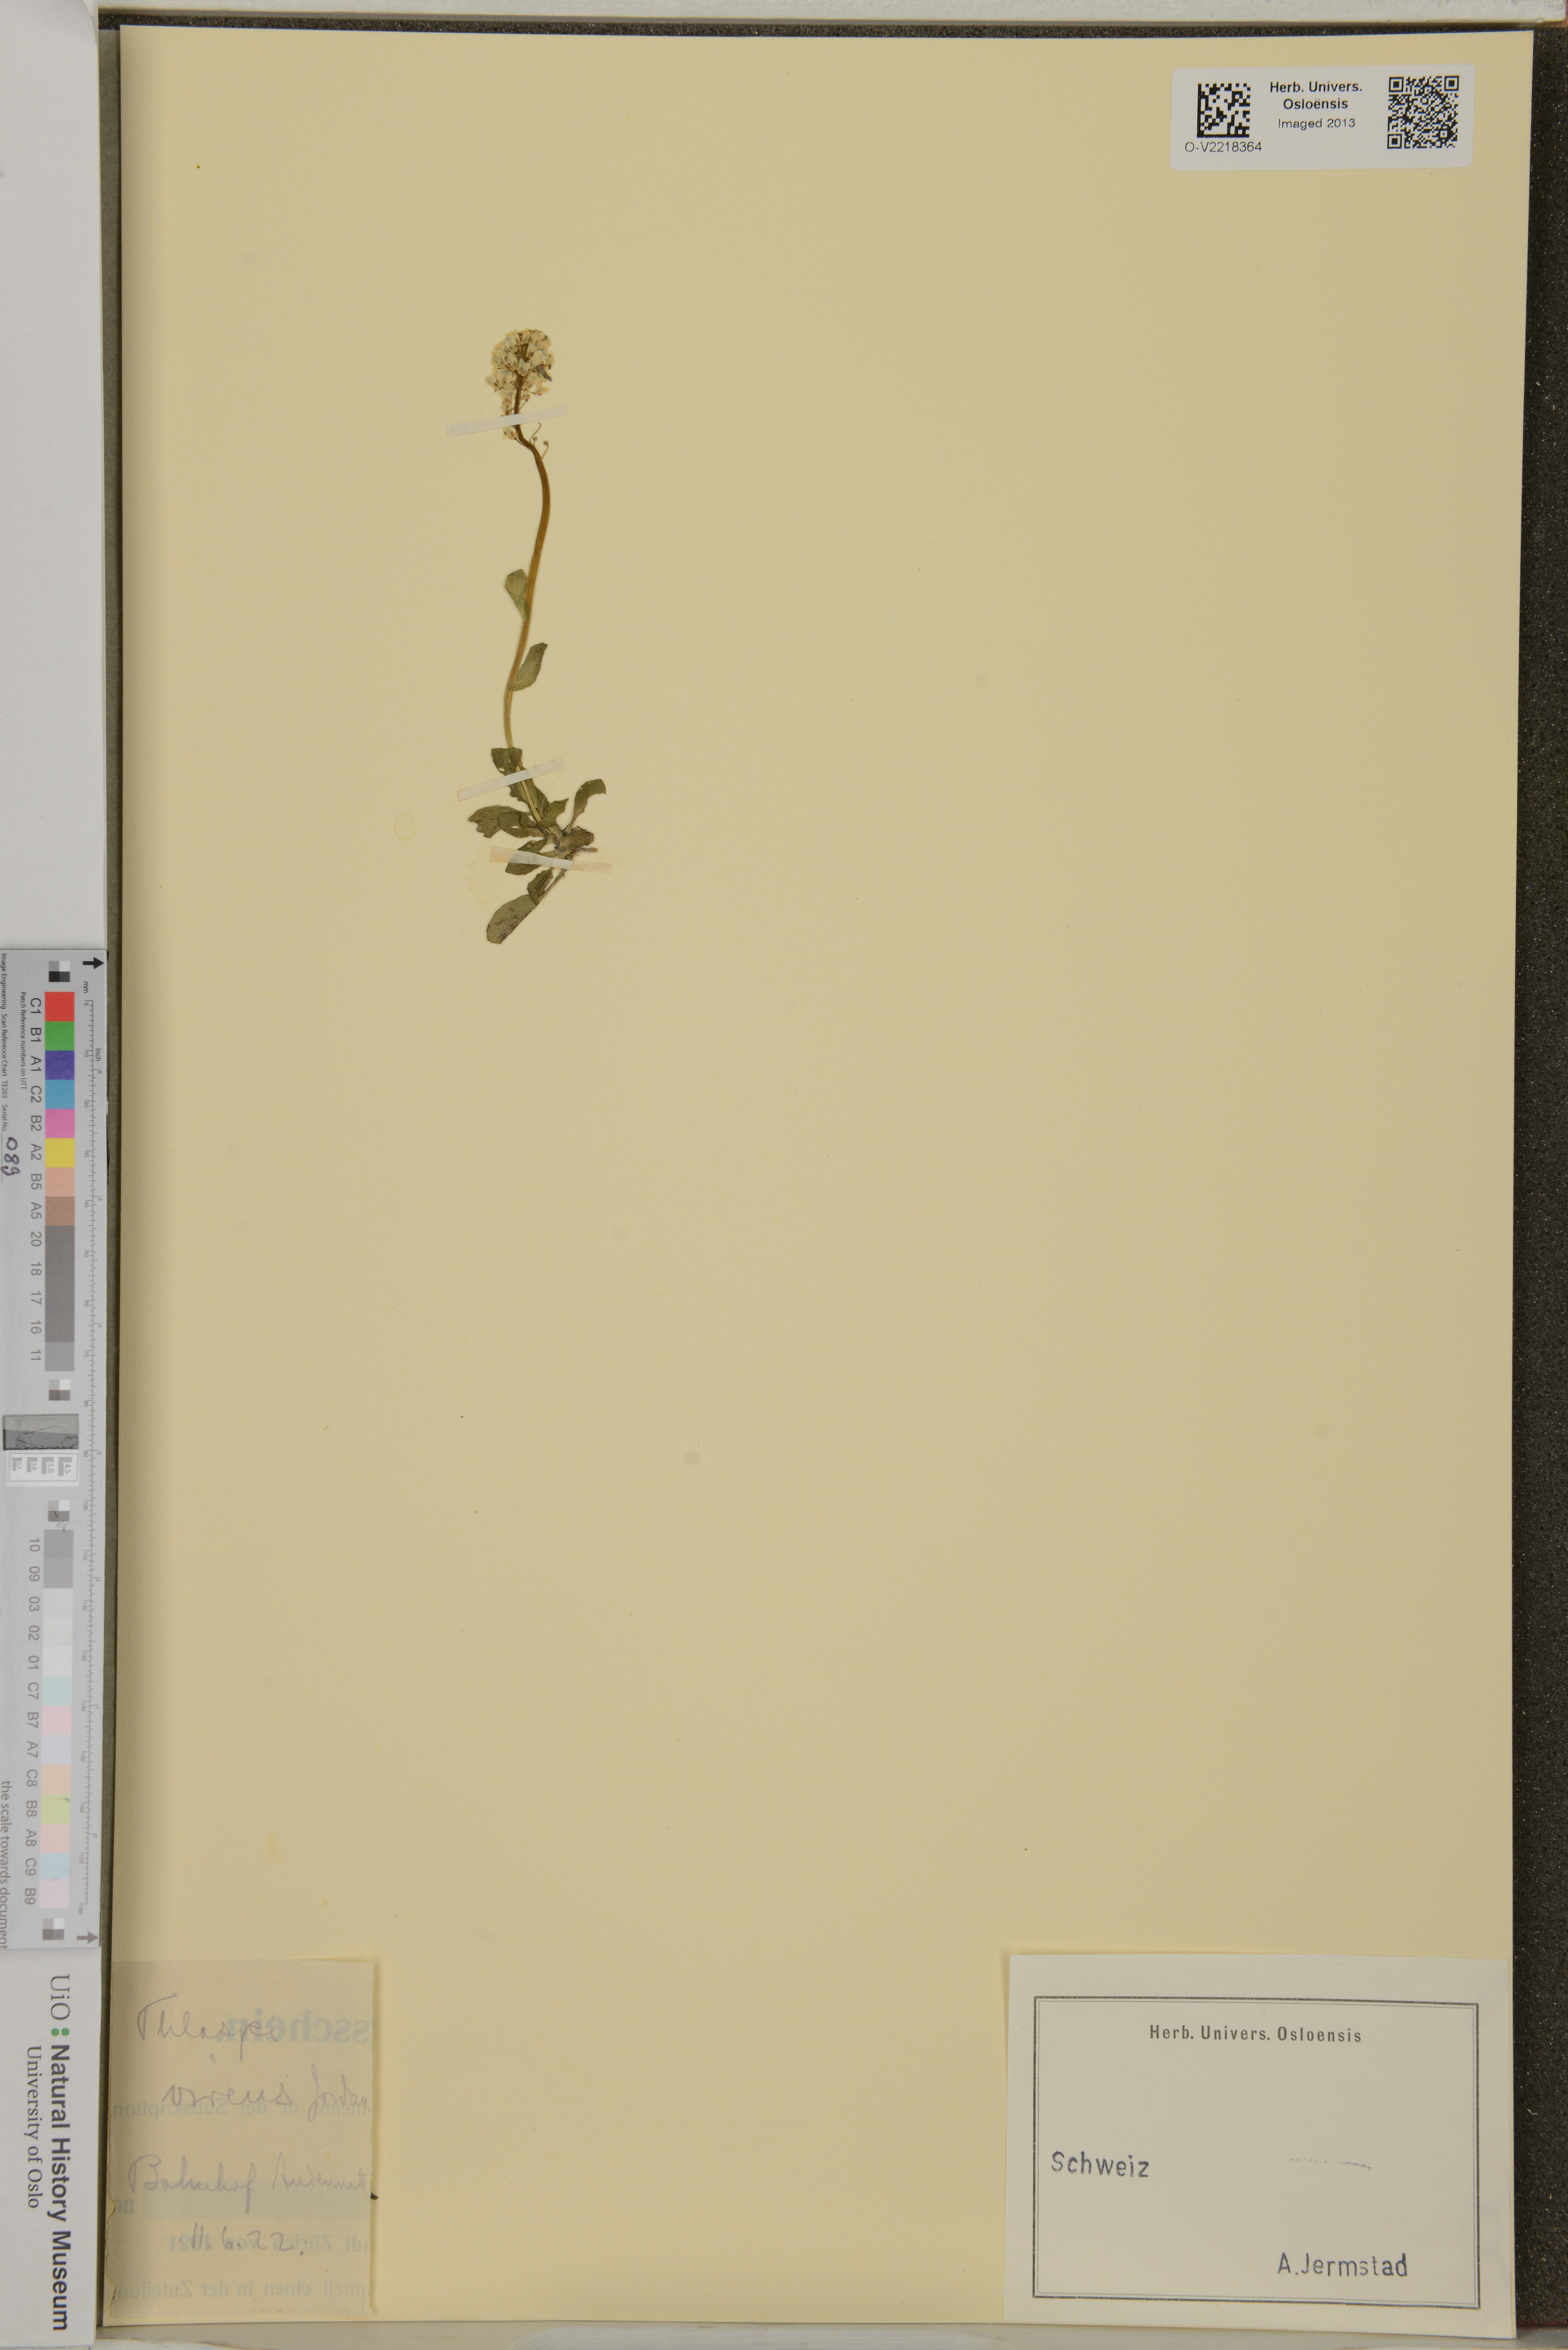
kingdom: Plantae
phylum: Tracheophyta
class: Magnoliopsida
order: Brassicales
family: Brassicaceae
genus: Noccaea
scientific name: Noccaea virens
